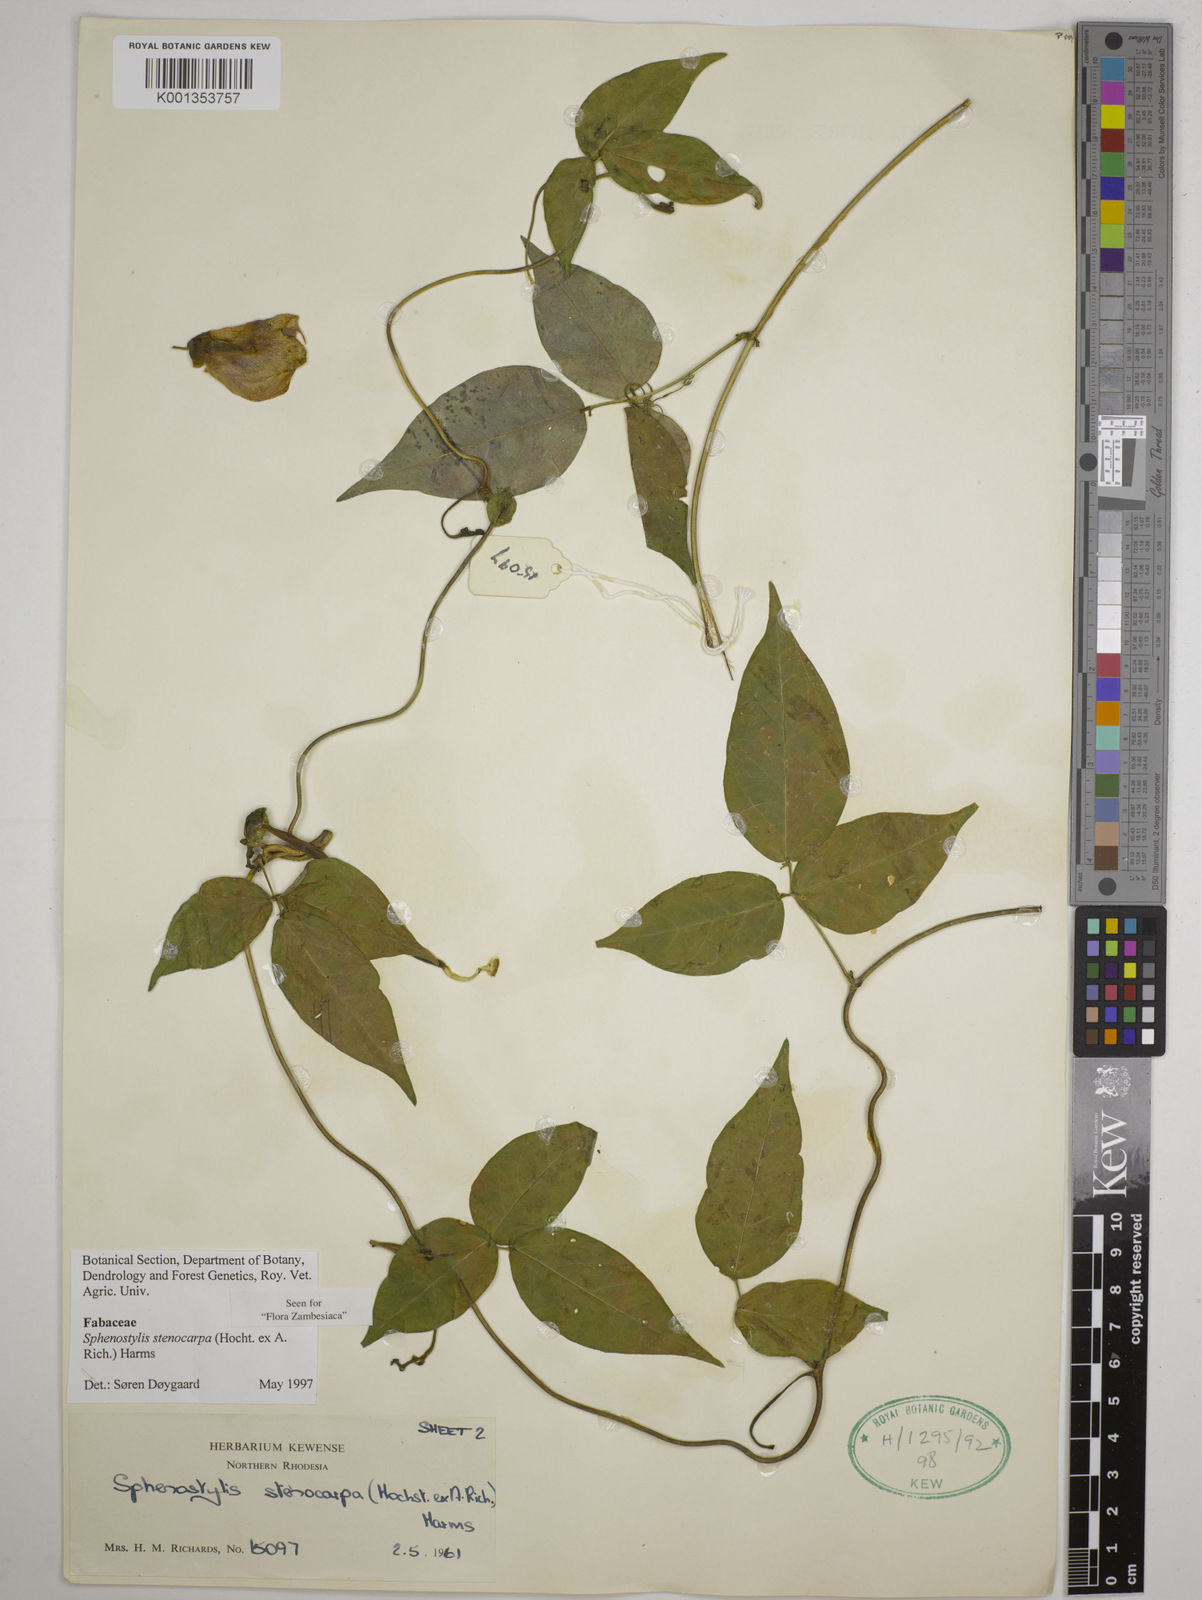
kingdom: Plantae
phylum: Tracheophyta
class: Magnoliopsida
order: Fabales
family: Fabaceae
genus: Sphenostylis
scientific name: Sphenostylis stenocarpa
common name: Yam-pea
